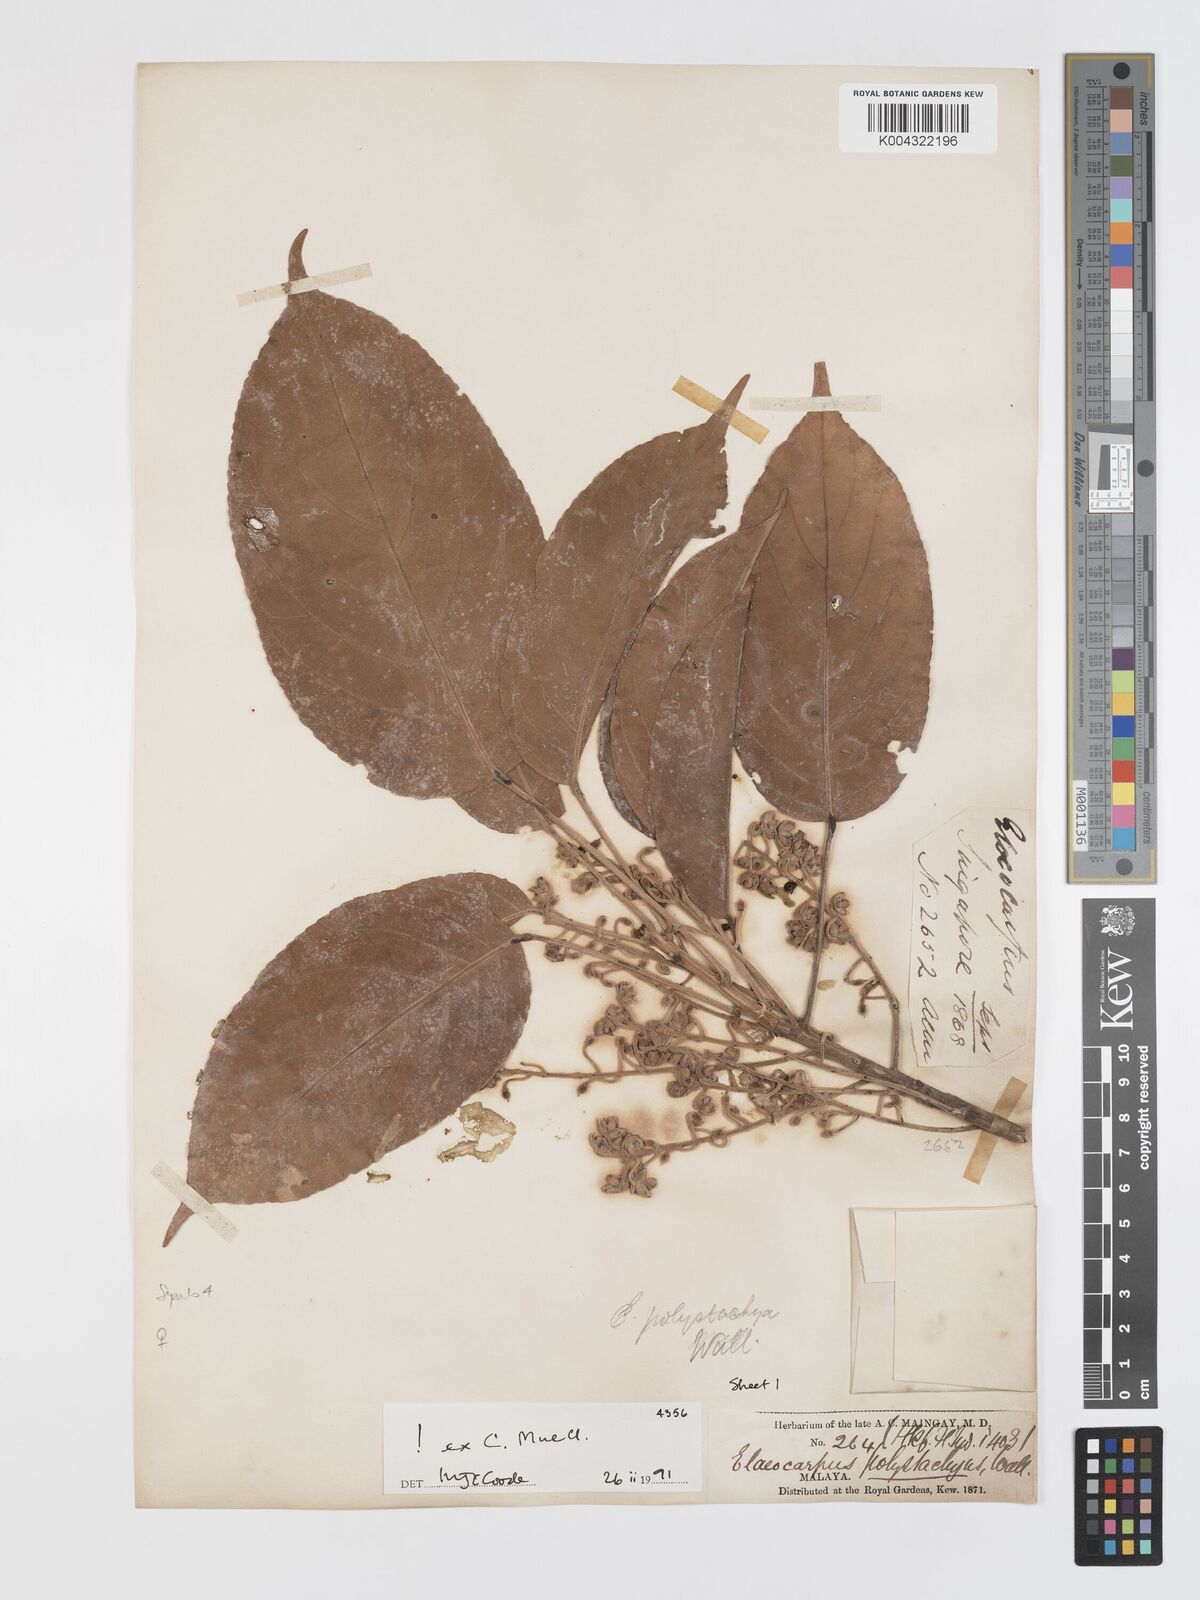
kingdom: Plantae
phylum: Tracheophyta
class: Magnoliopsida
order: Oxalidales
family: Elaeocarpaceae
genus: Elaeocarpus
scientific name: Elaeocarpus polystachyus
